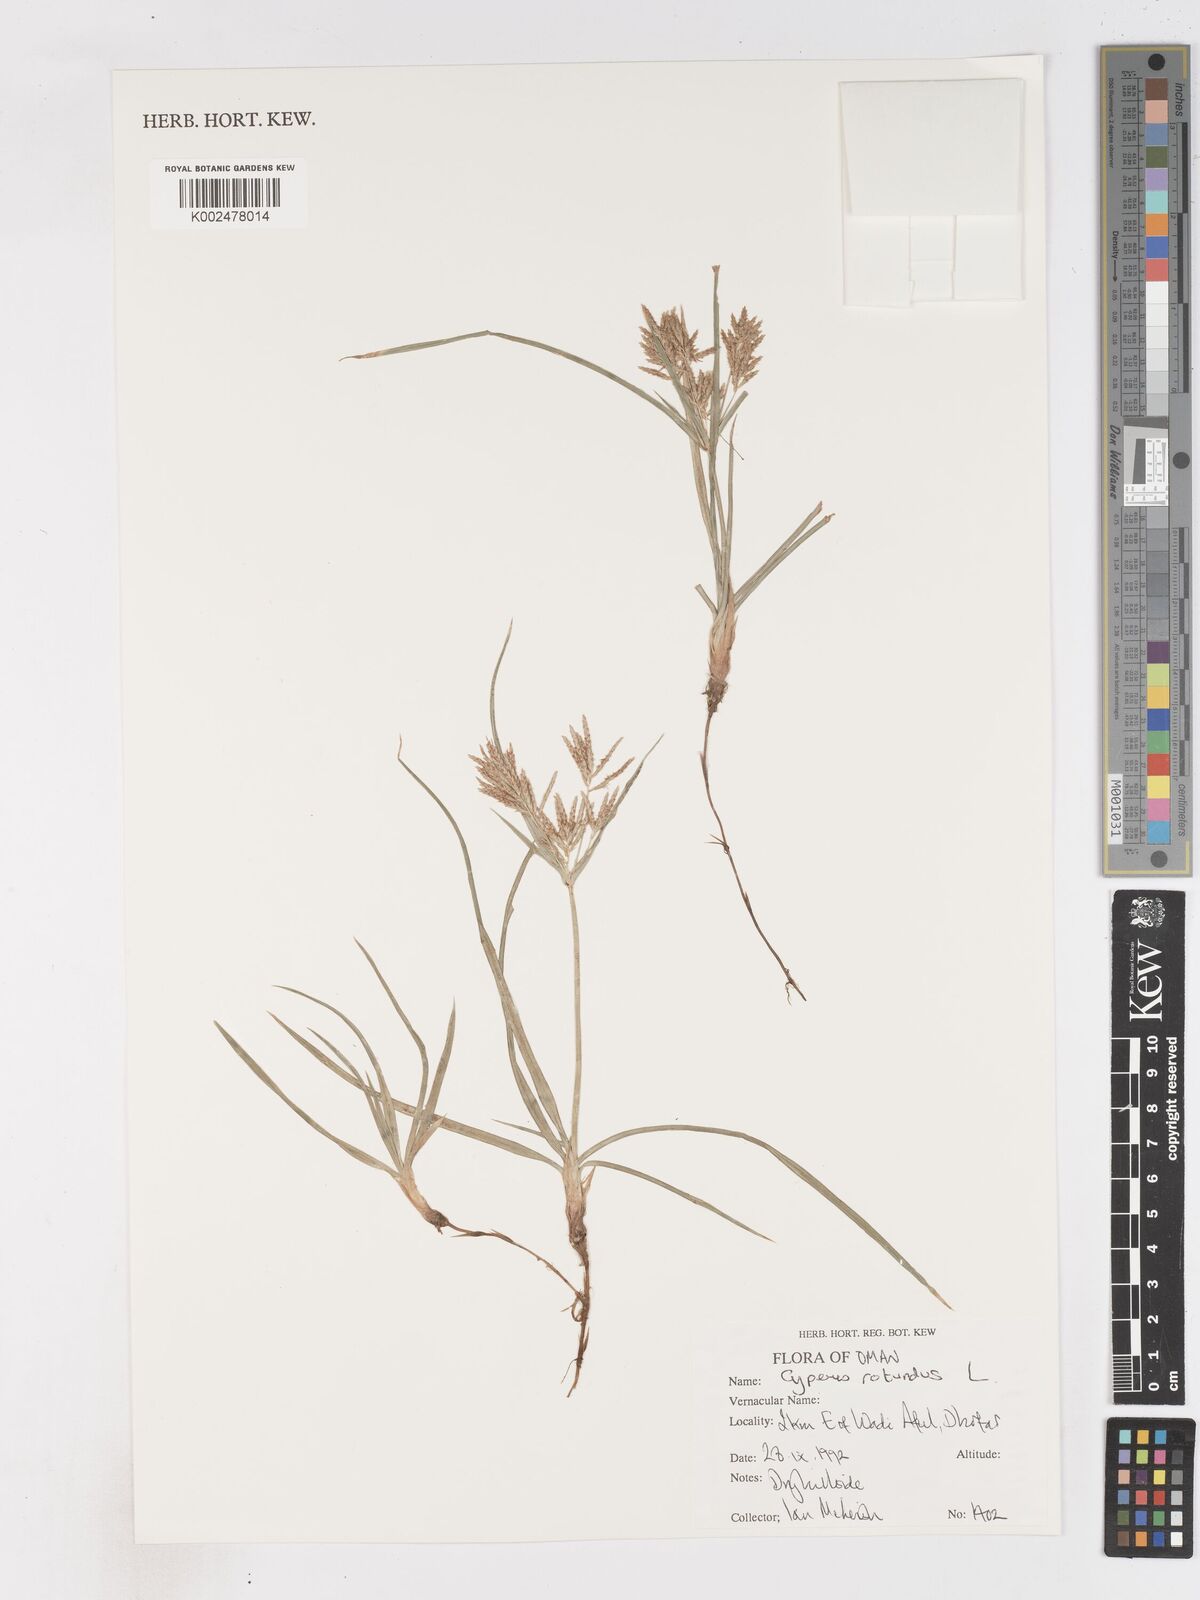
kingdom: Plantae
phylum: Tracheophyta
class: Liliopsida
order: Poales
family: Cyperaceae
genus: Cyperus
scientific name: Cyperus rotundus
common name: Nutgrass
